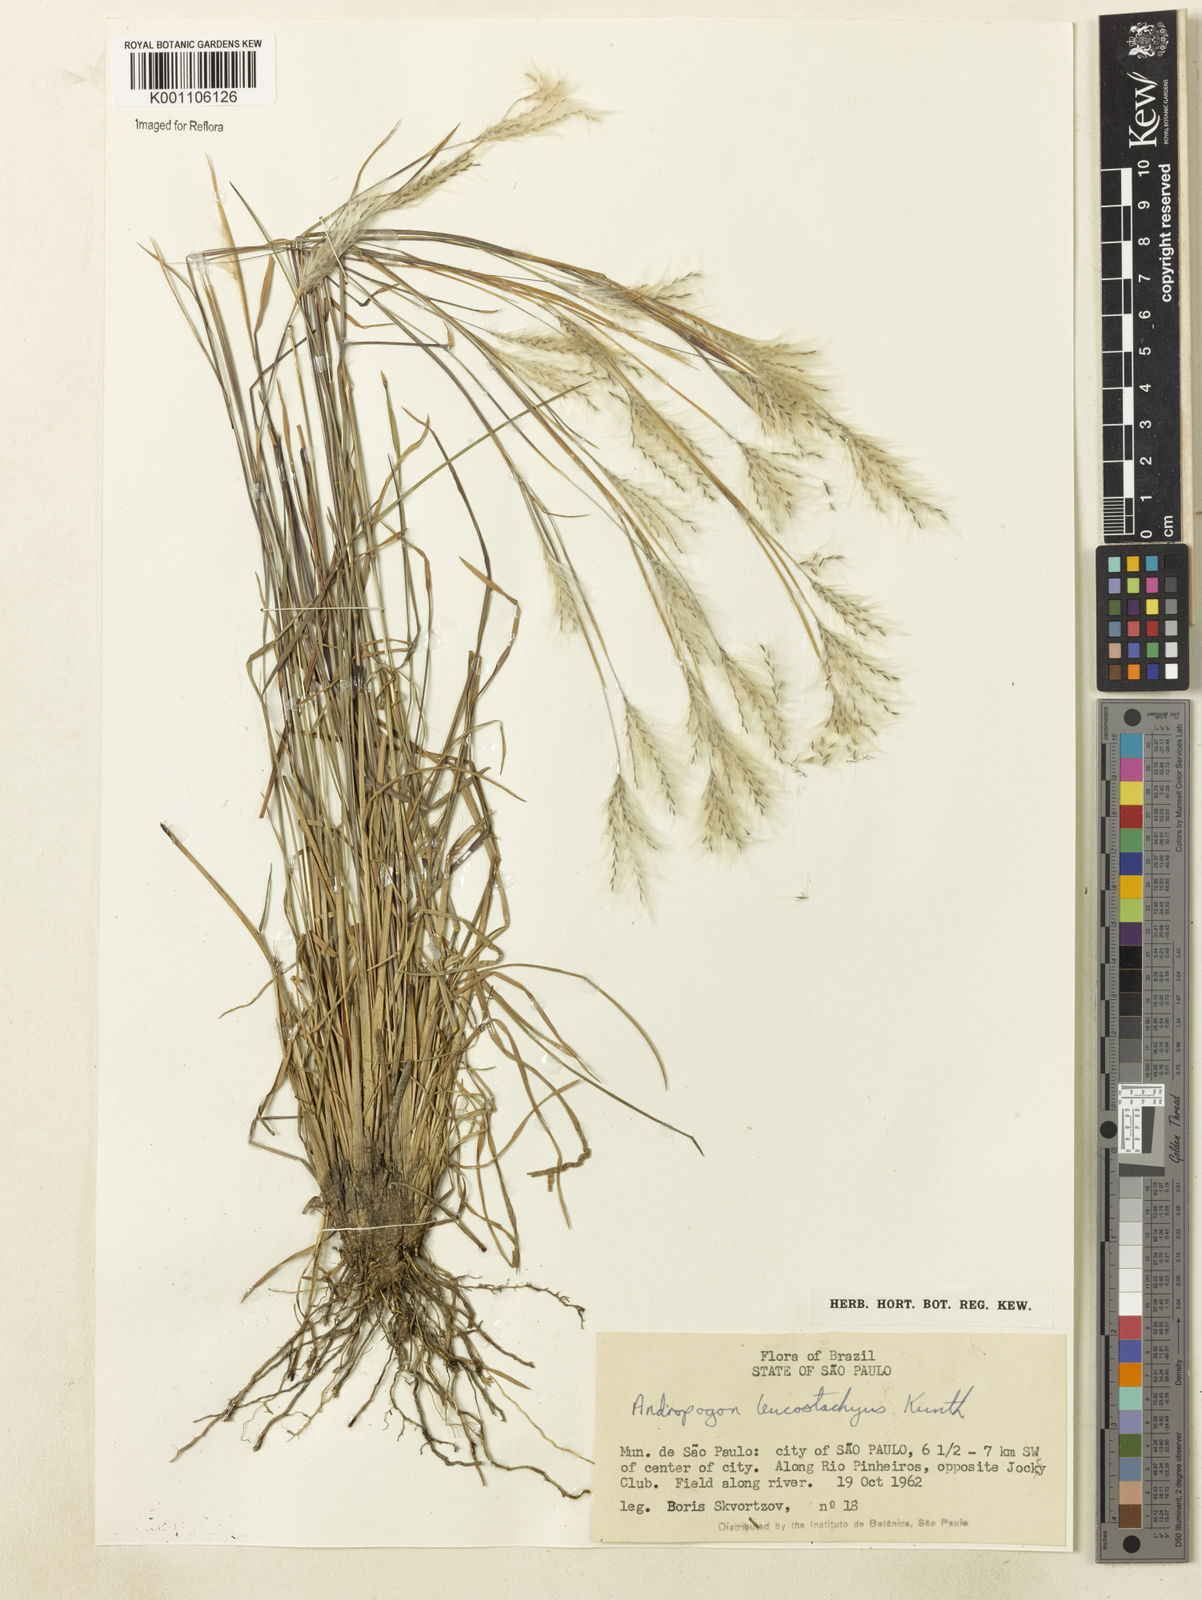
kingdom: Plantae
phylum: Tracheophyta
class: Liliopsida
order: Poales
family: Poaceae
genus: Andropogon
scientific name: Andropogon leucostachyus
